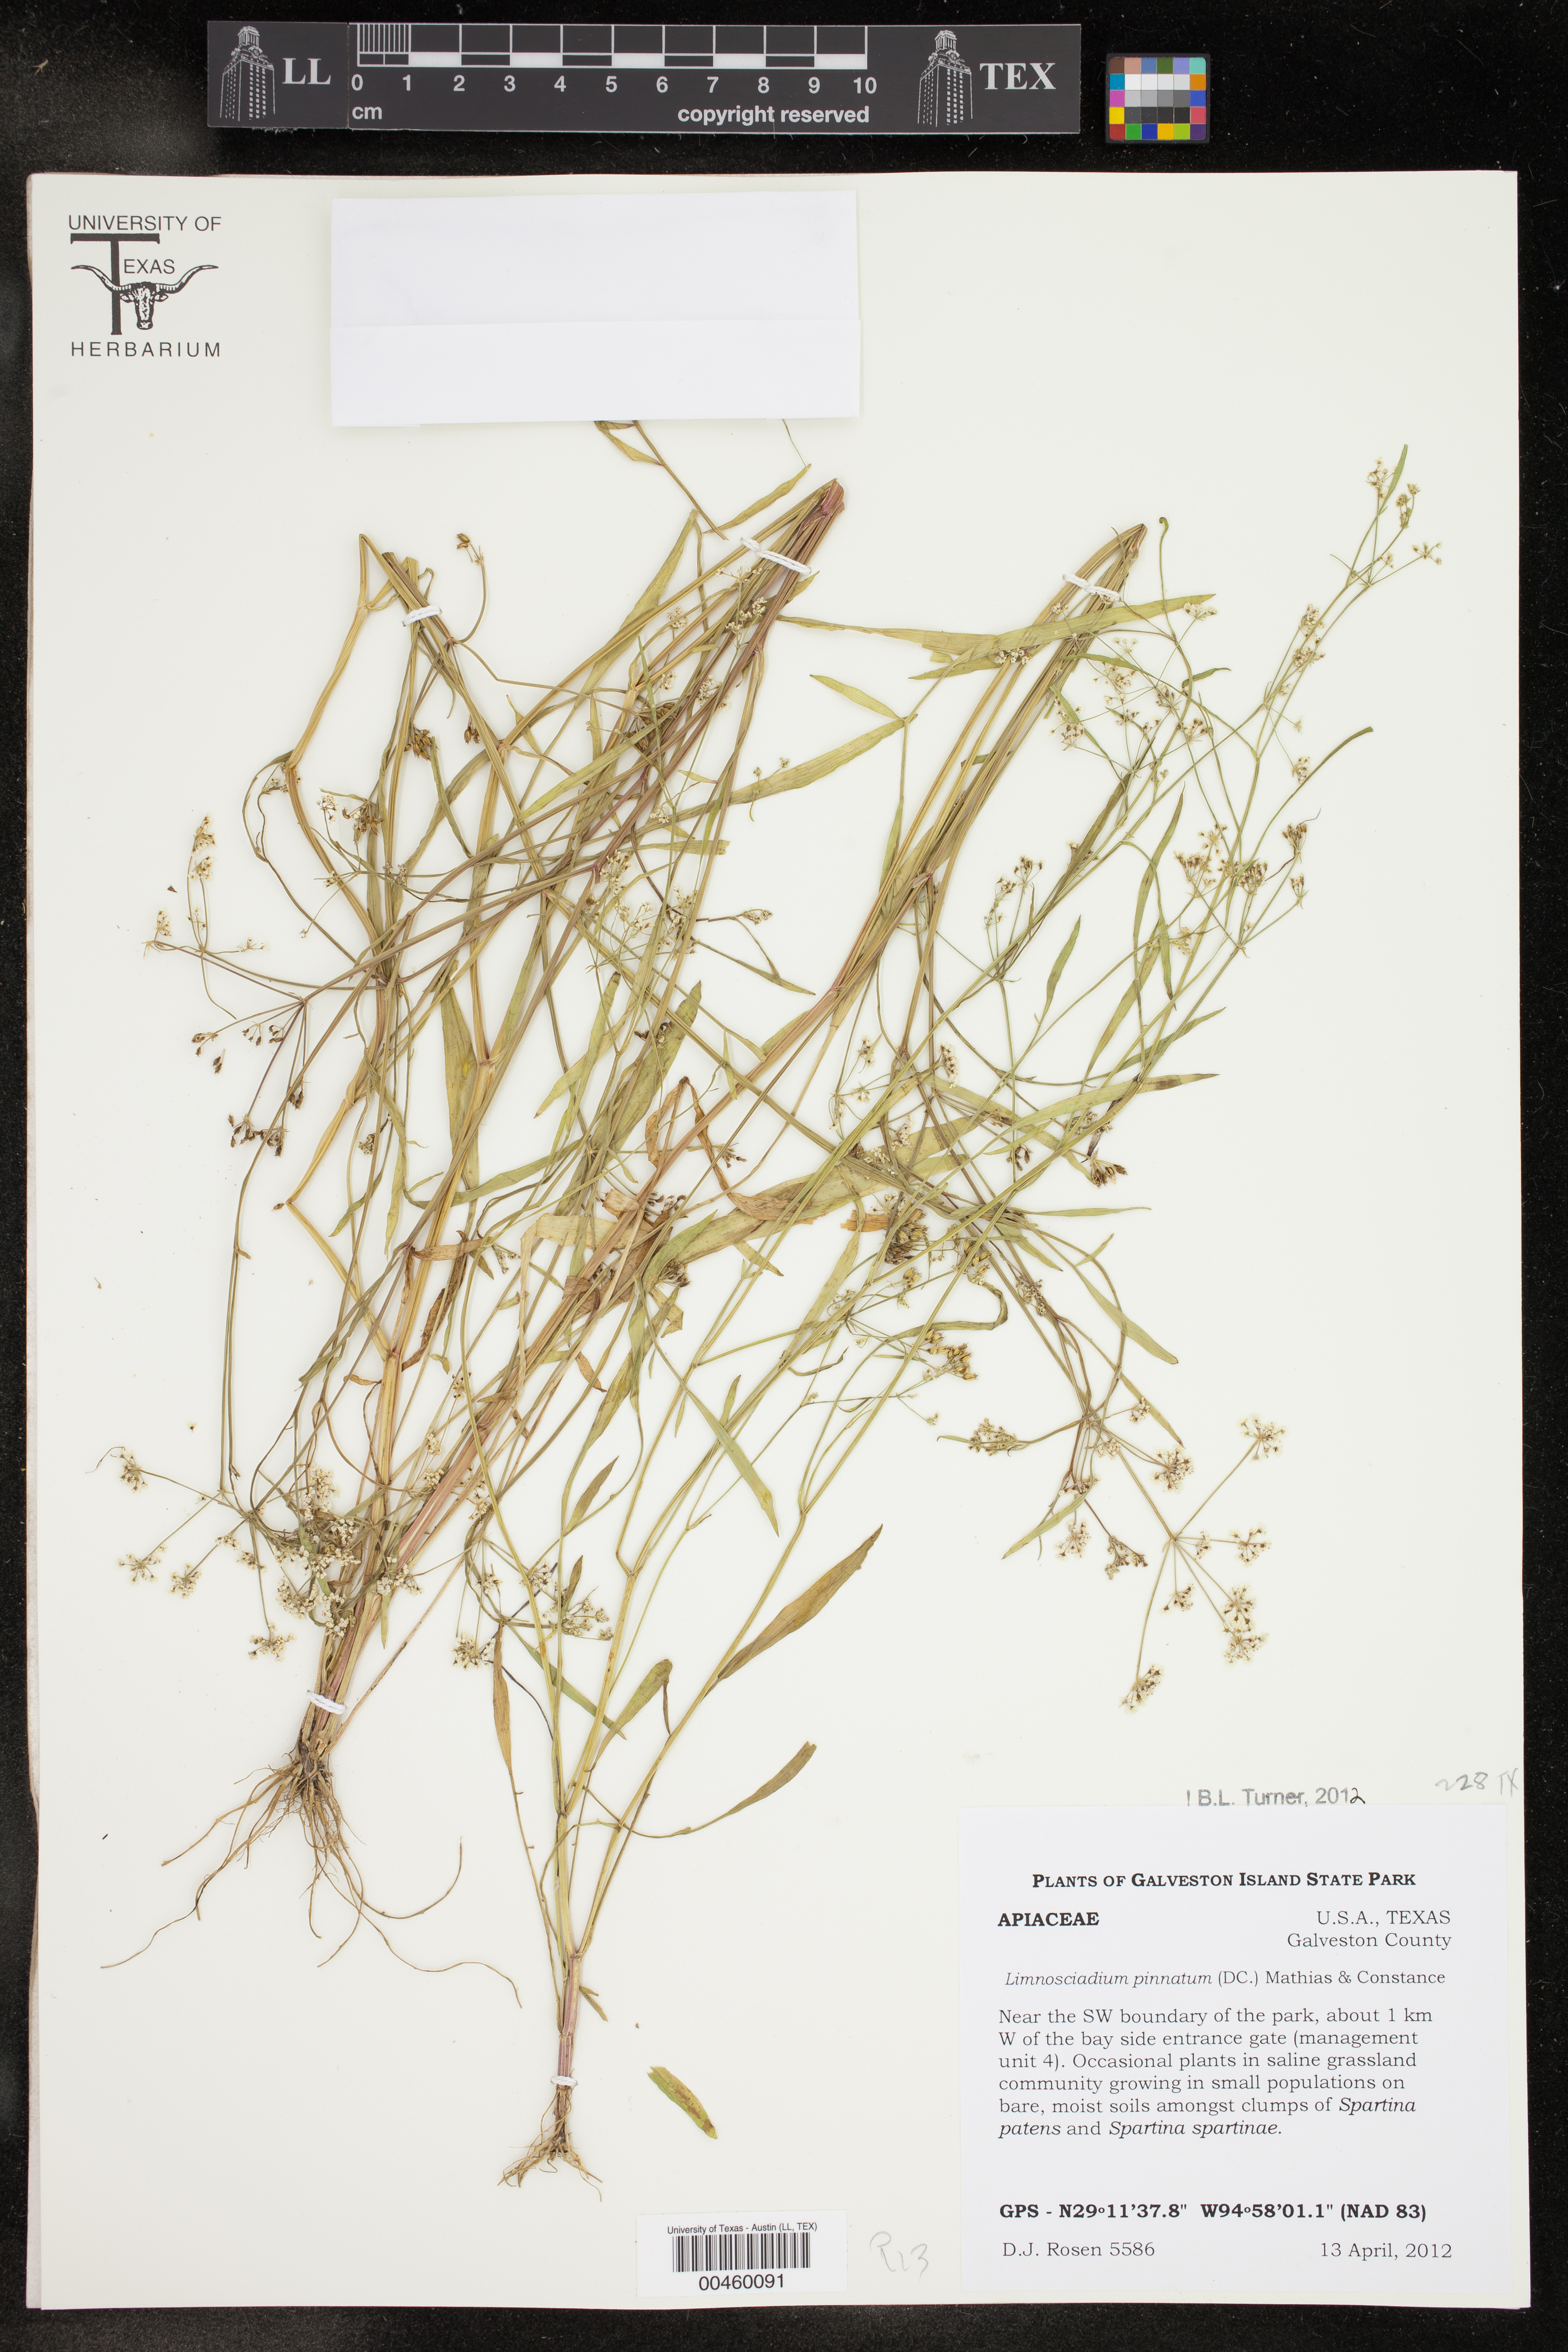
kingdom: Plantae
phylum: Tracheophyta
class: Magnoliopsida
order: Apiales
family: Apiaceae
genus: Limnosciadium
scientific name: Limnosciadium pinnatum
